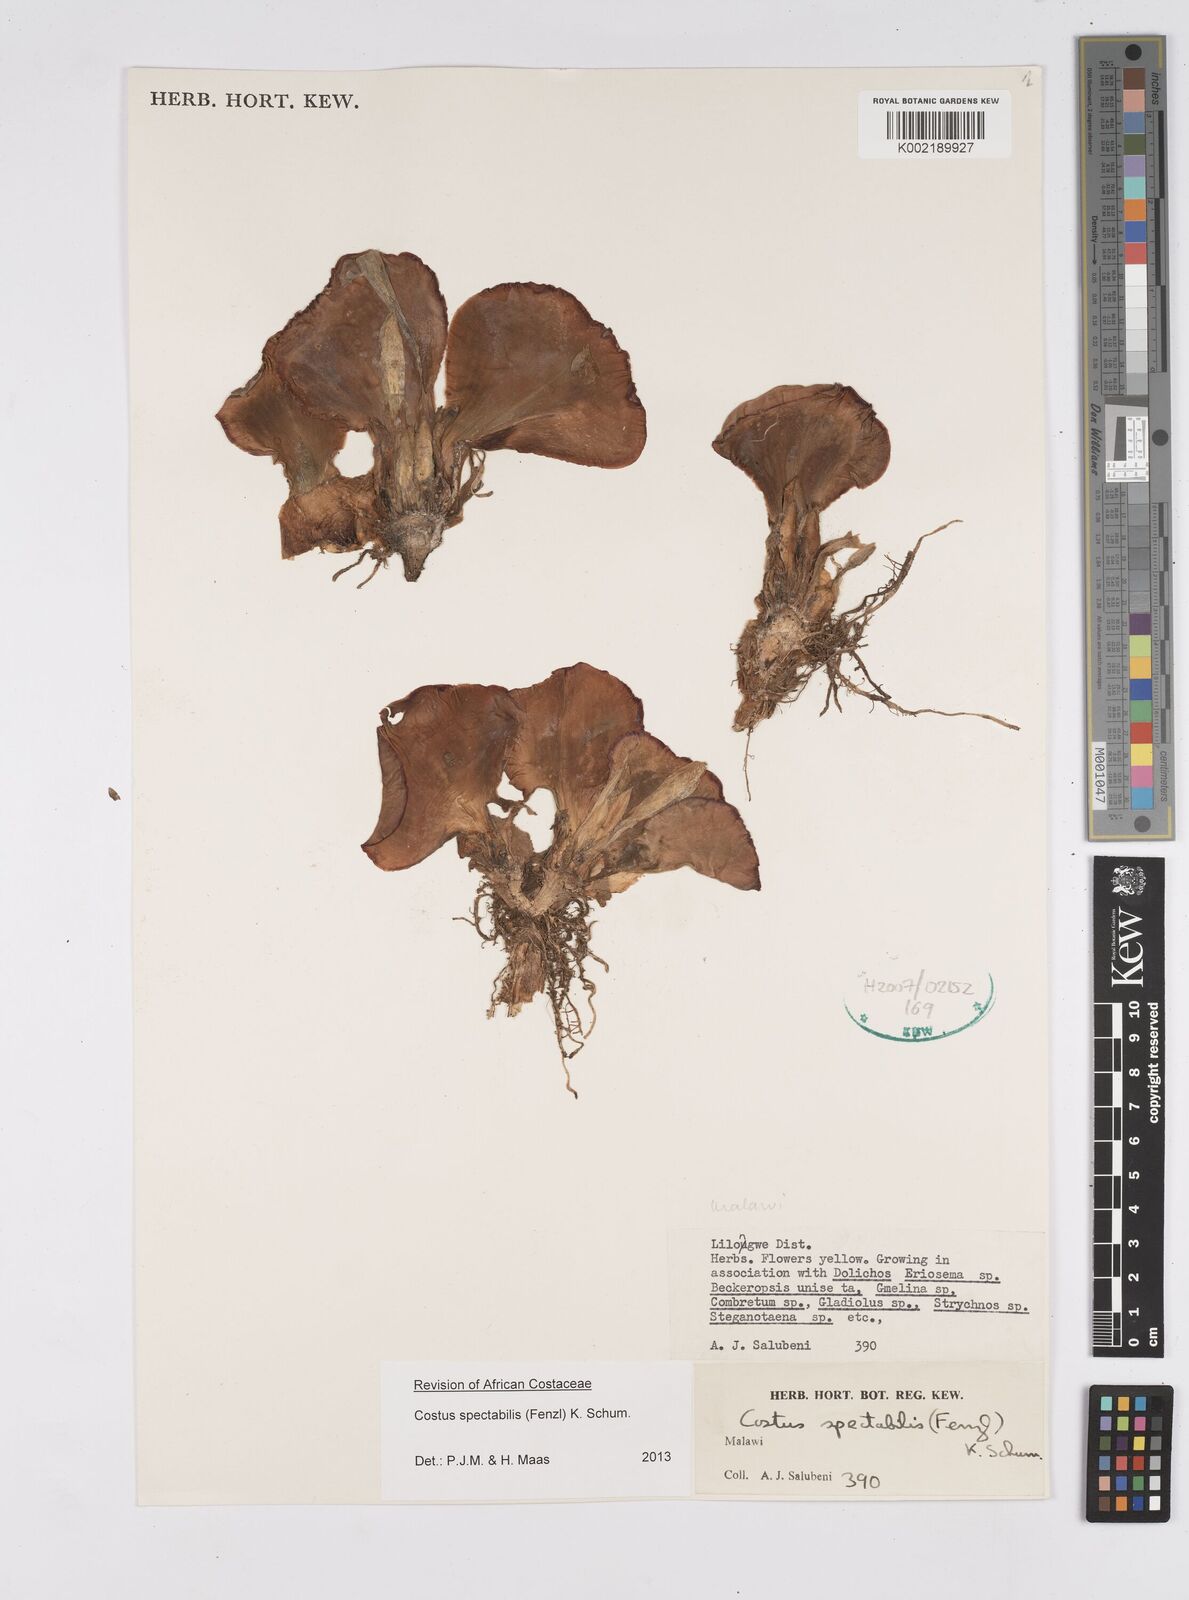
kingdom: Plantae
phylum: Tracheophyta
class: Liliopsida
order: Zingiberales
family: Costaceae
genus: Costus
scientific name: Costus spectabilis
